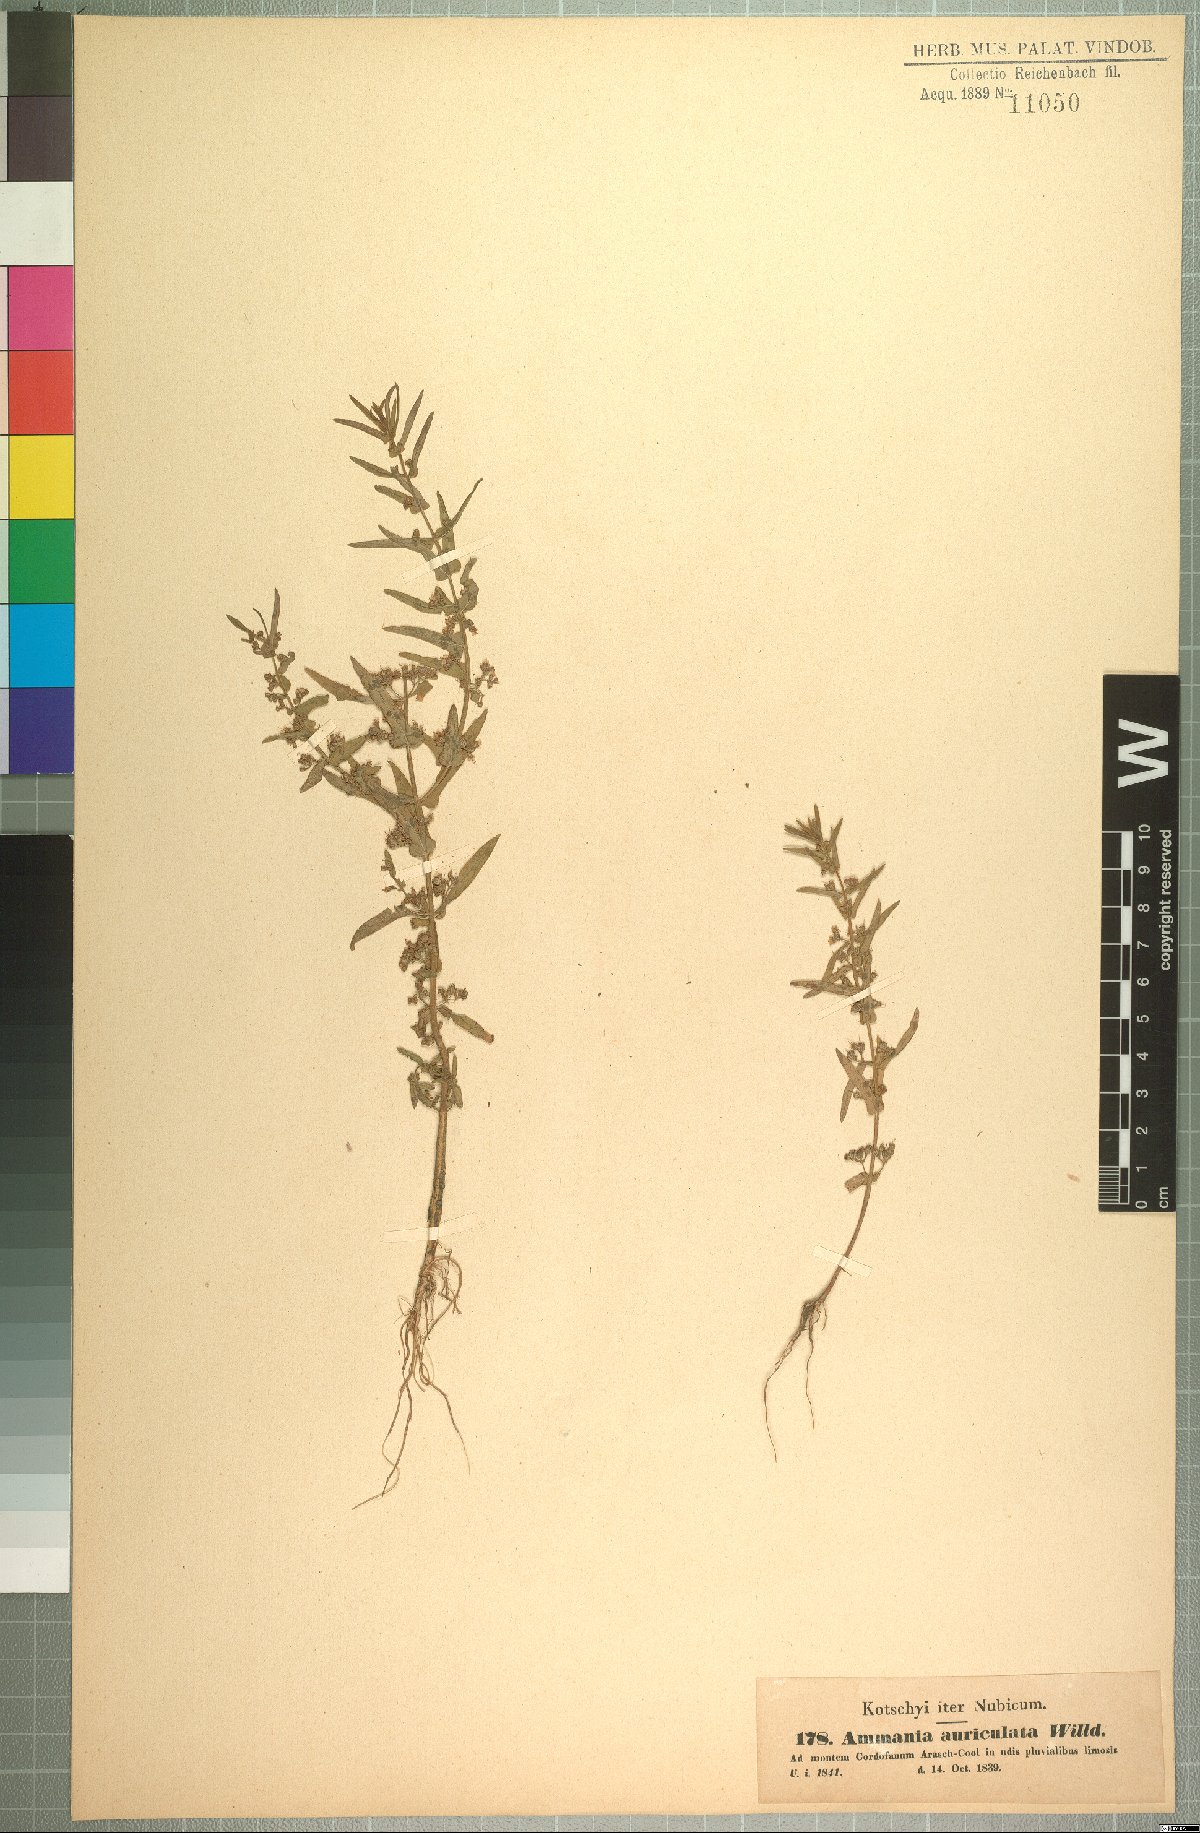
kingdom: Plantae
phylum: Tracheophyta
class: Magnoliopsida
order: Myrtales
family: Lythraceae
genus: Ammannia
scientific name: Ammannia auriculata
